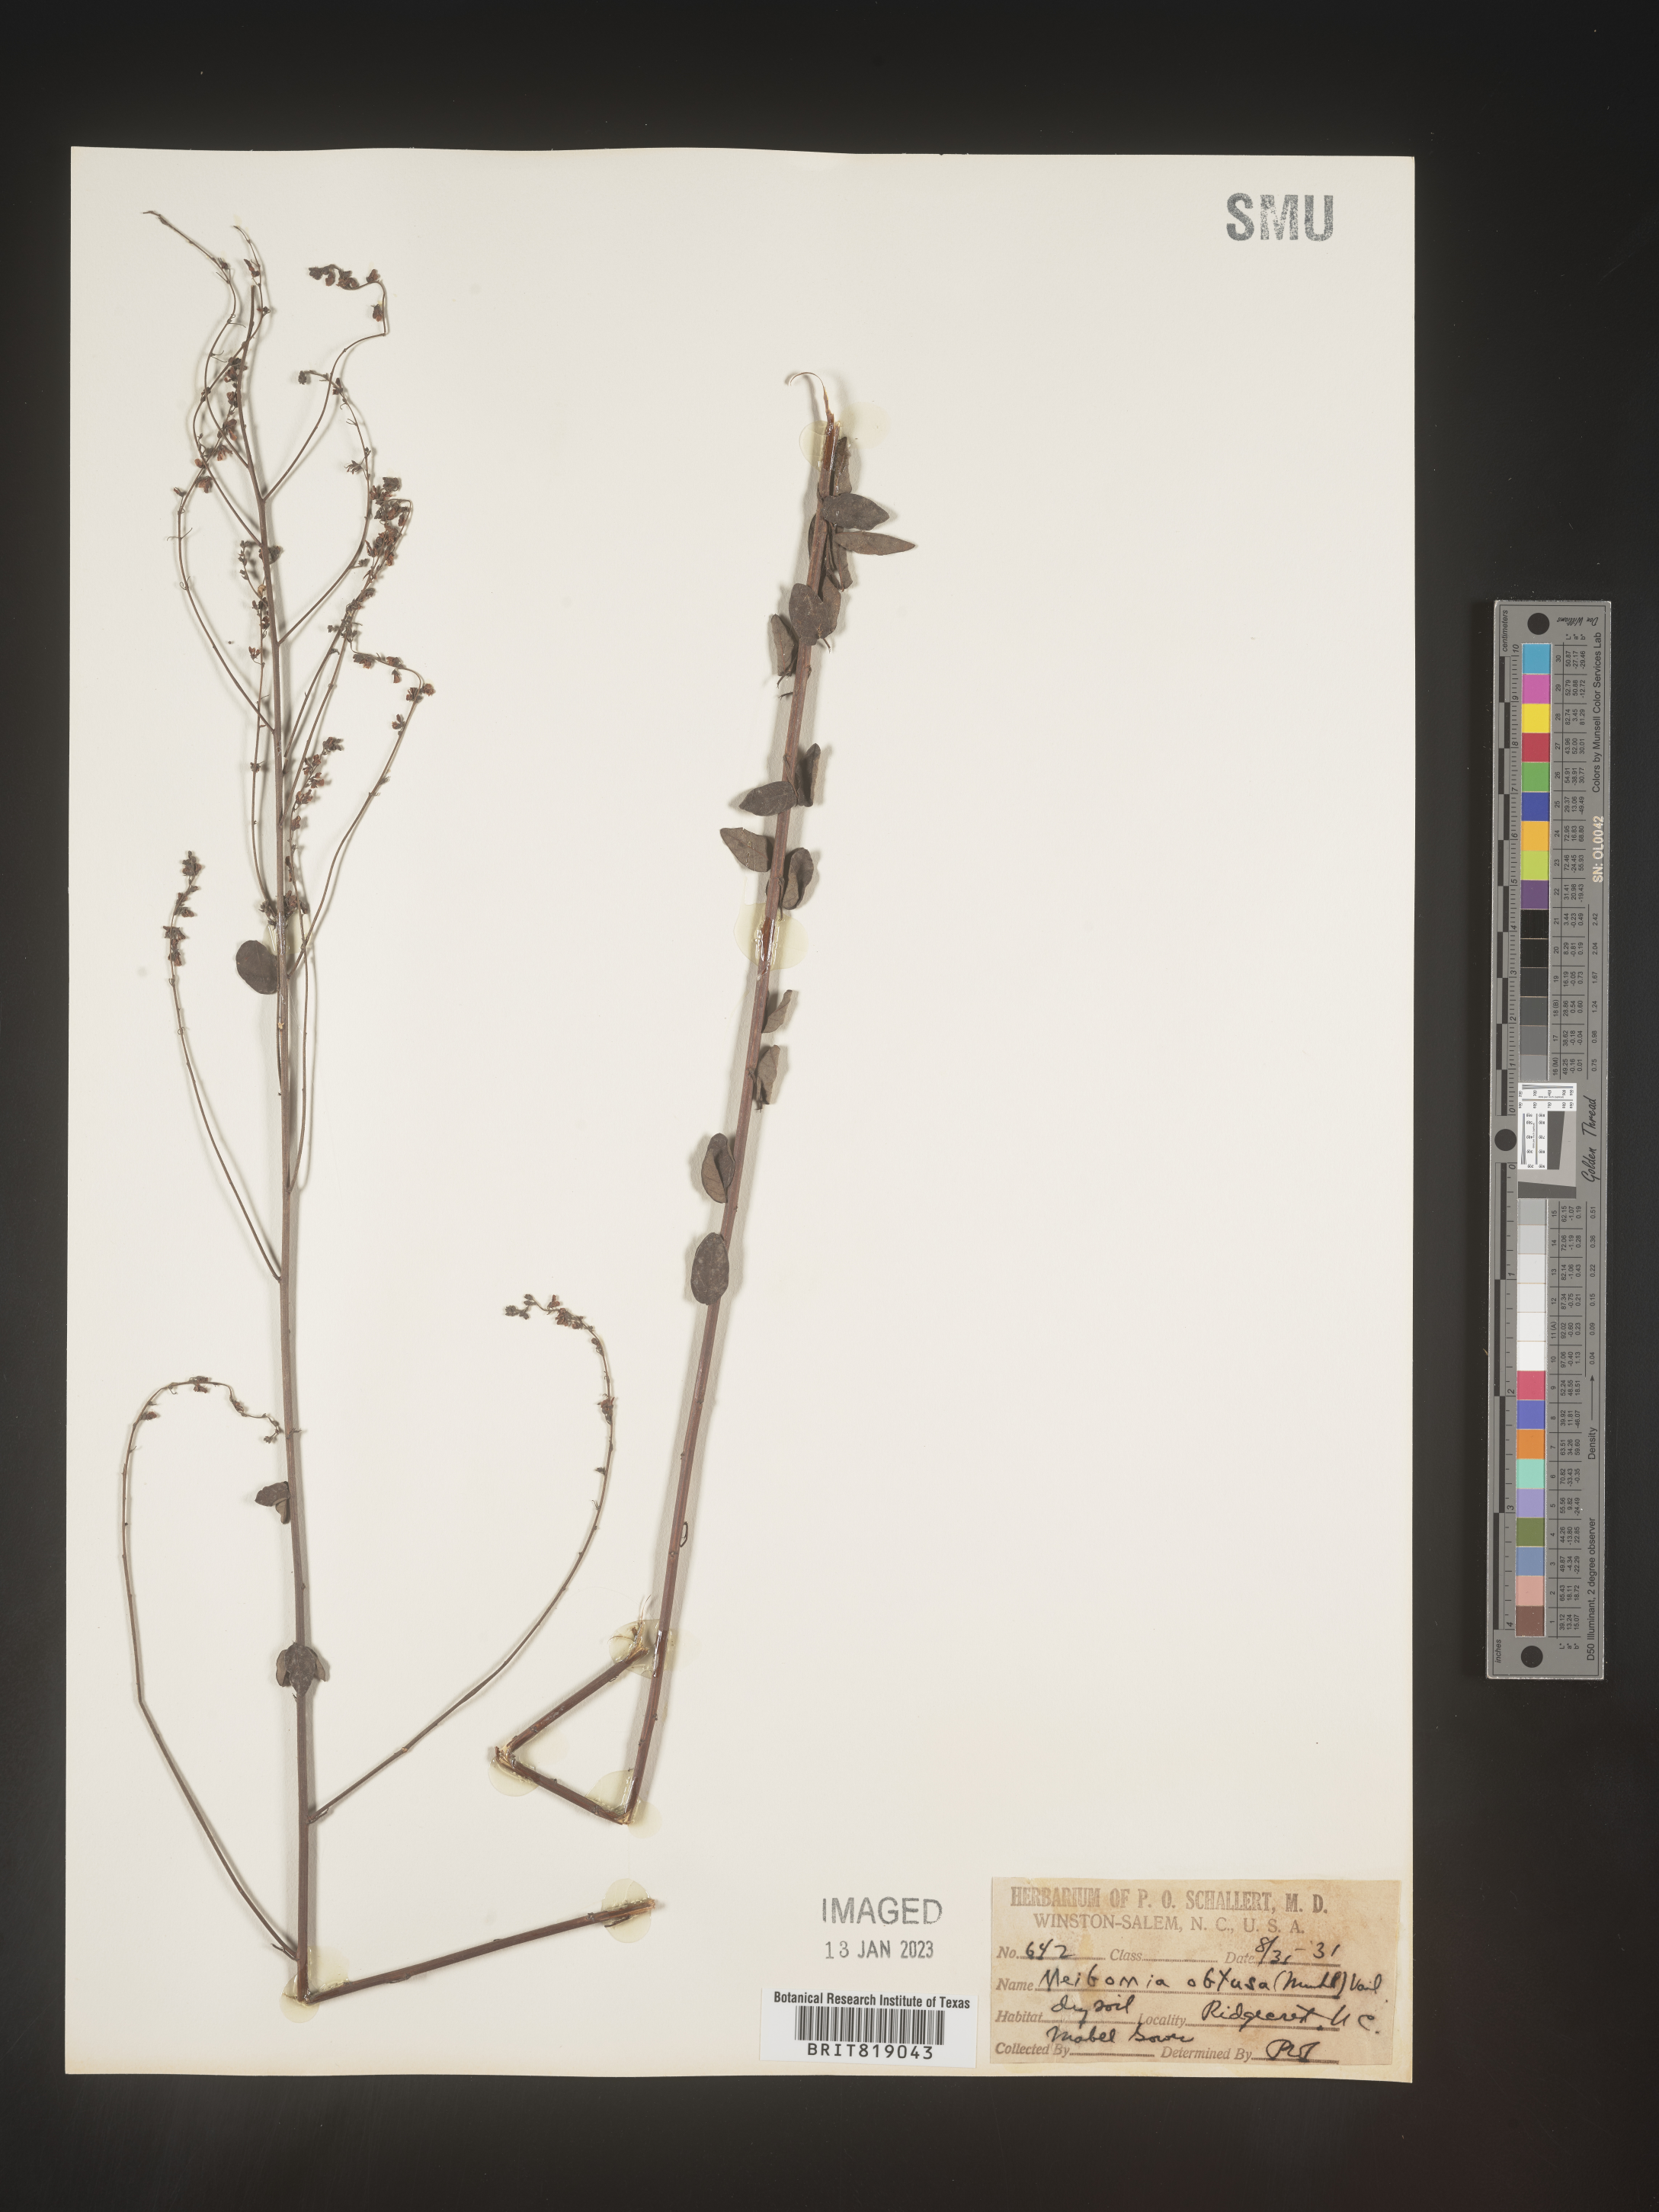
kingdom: Plantae
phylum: Tracheophyta
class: Magnoliopsida
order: Fabales
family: Fabaceae
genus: Desmodium
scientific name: Desmodium obtusum
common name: Stiff tick trefoil
